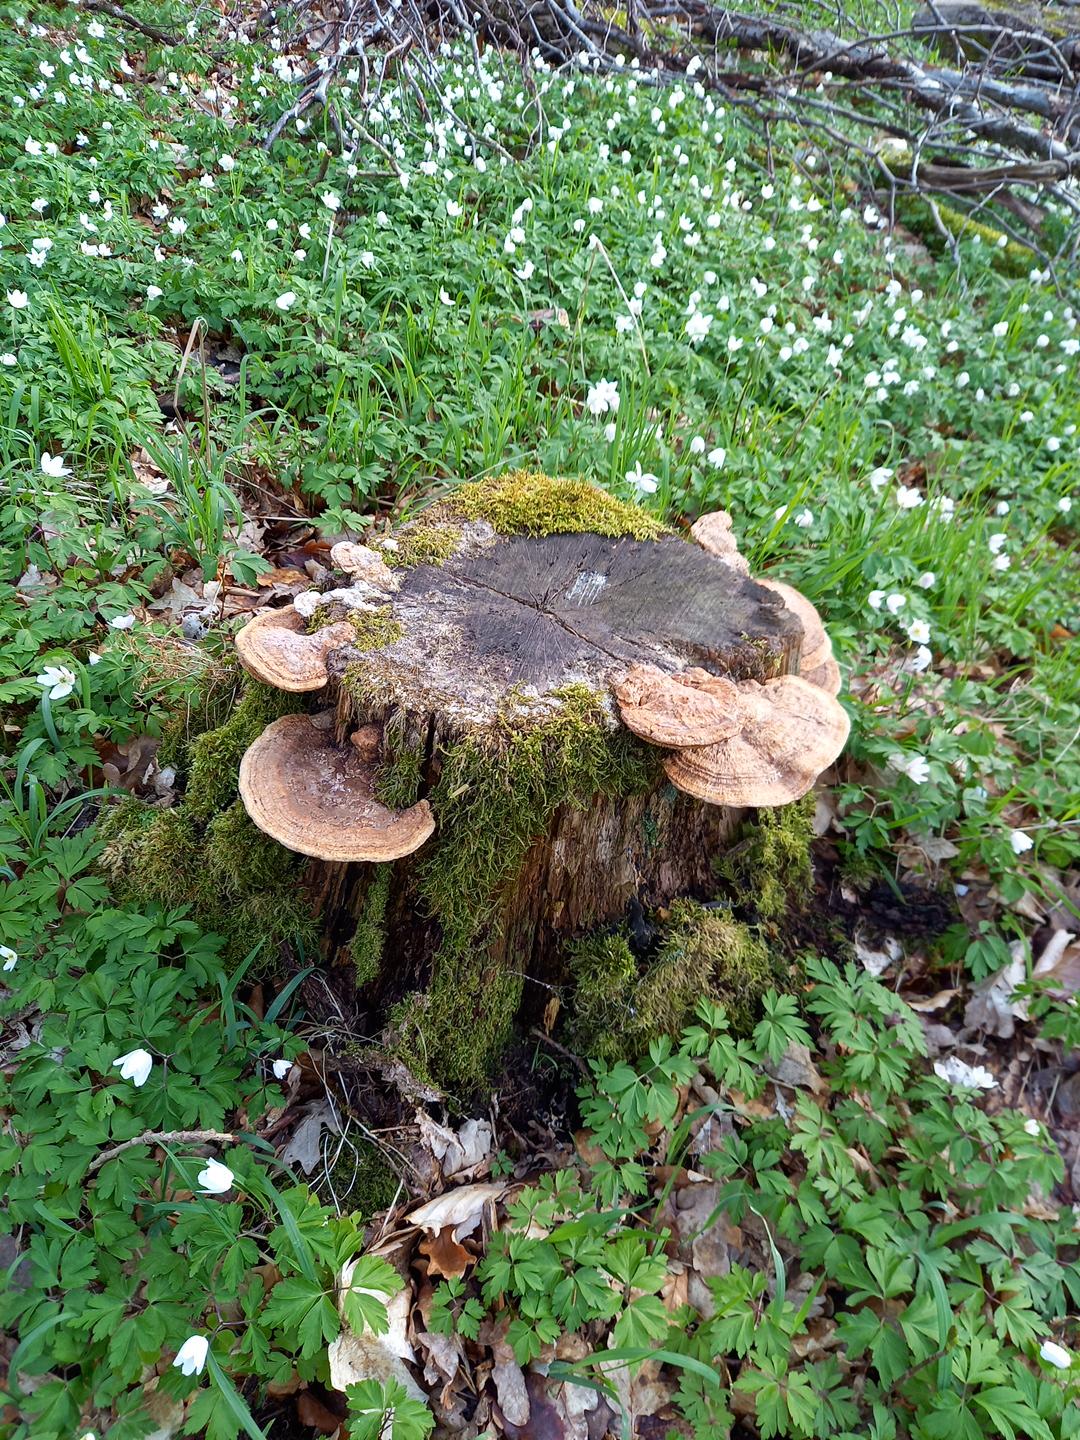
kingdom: Fungi
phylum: Basidiomycota
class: Agaricomycetes
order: Polyporales
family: Fomitopsidaceae
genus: Daedalea
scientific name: Daedalea quercina
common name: ege-labyrintsvamp
